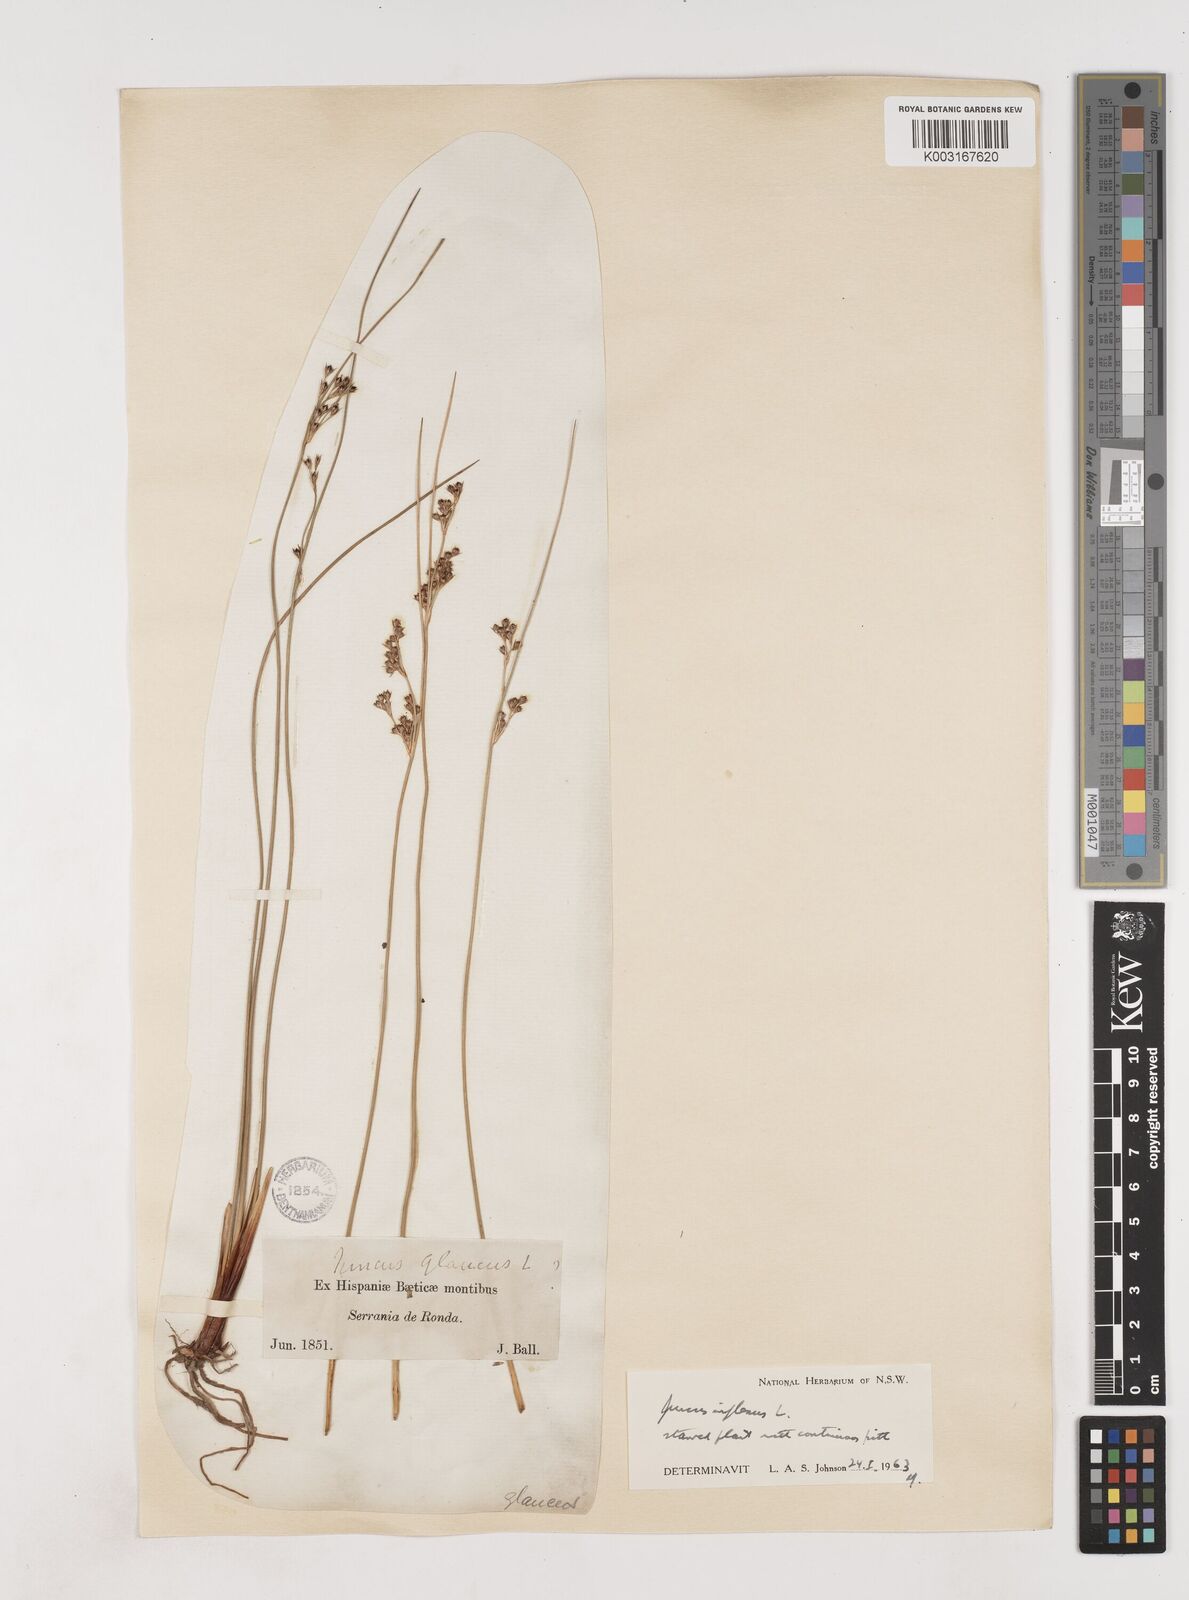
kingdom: Plantae
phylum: Tracheophyta
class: Liliopsida
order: Poales
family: Juncaceae
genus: Juncus
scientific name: Juncus inflexus
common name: Hard rush
